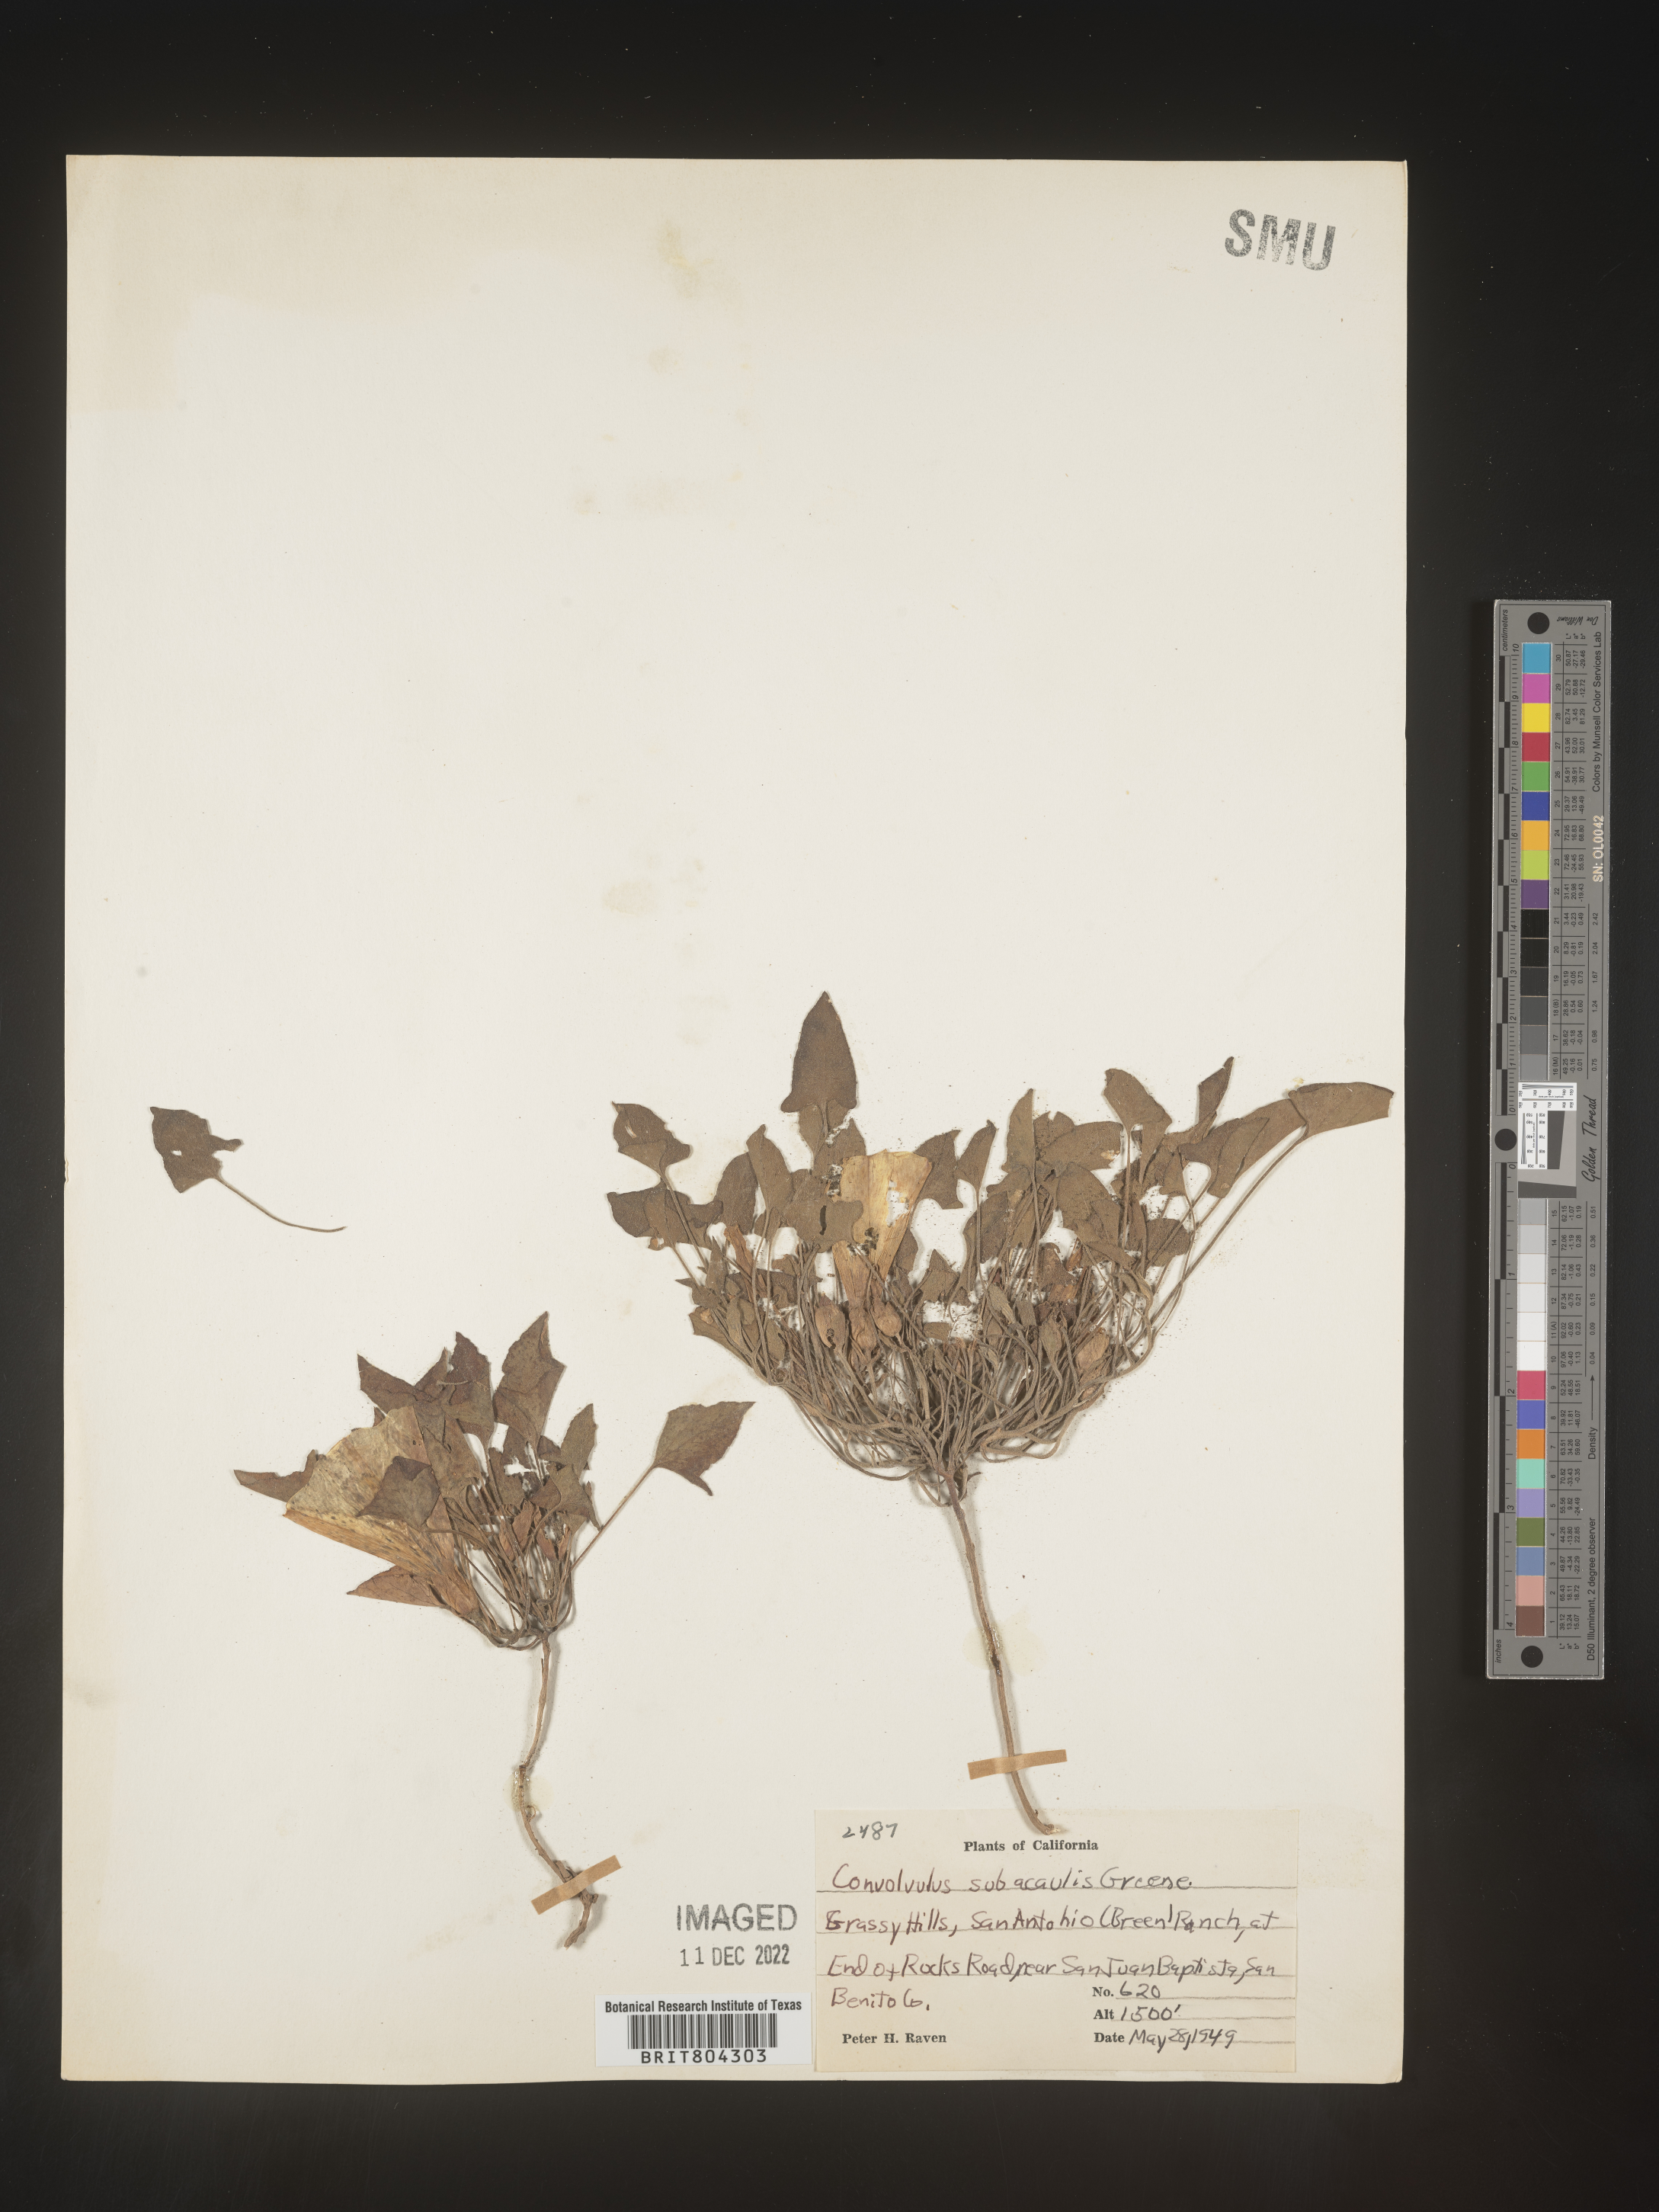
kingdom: Plantae
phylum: Tracheophyta
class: Magnoliopsida
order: Solanales
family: Convolvulaceae
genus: Calystegia
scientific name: Calystegia
